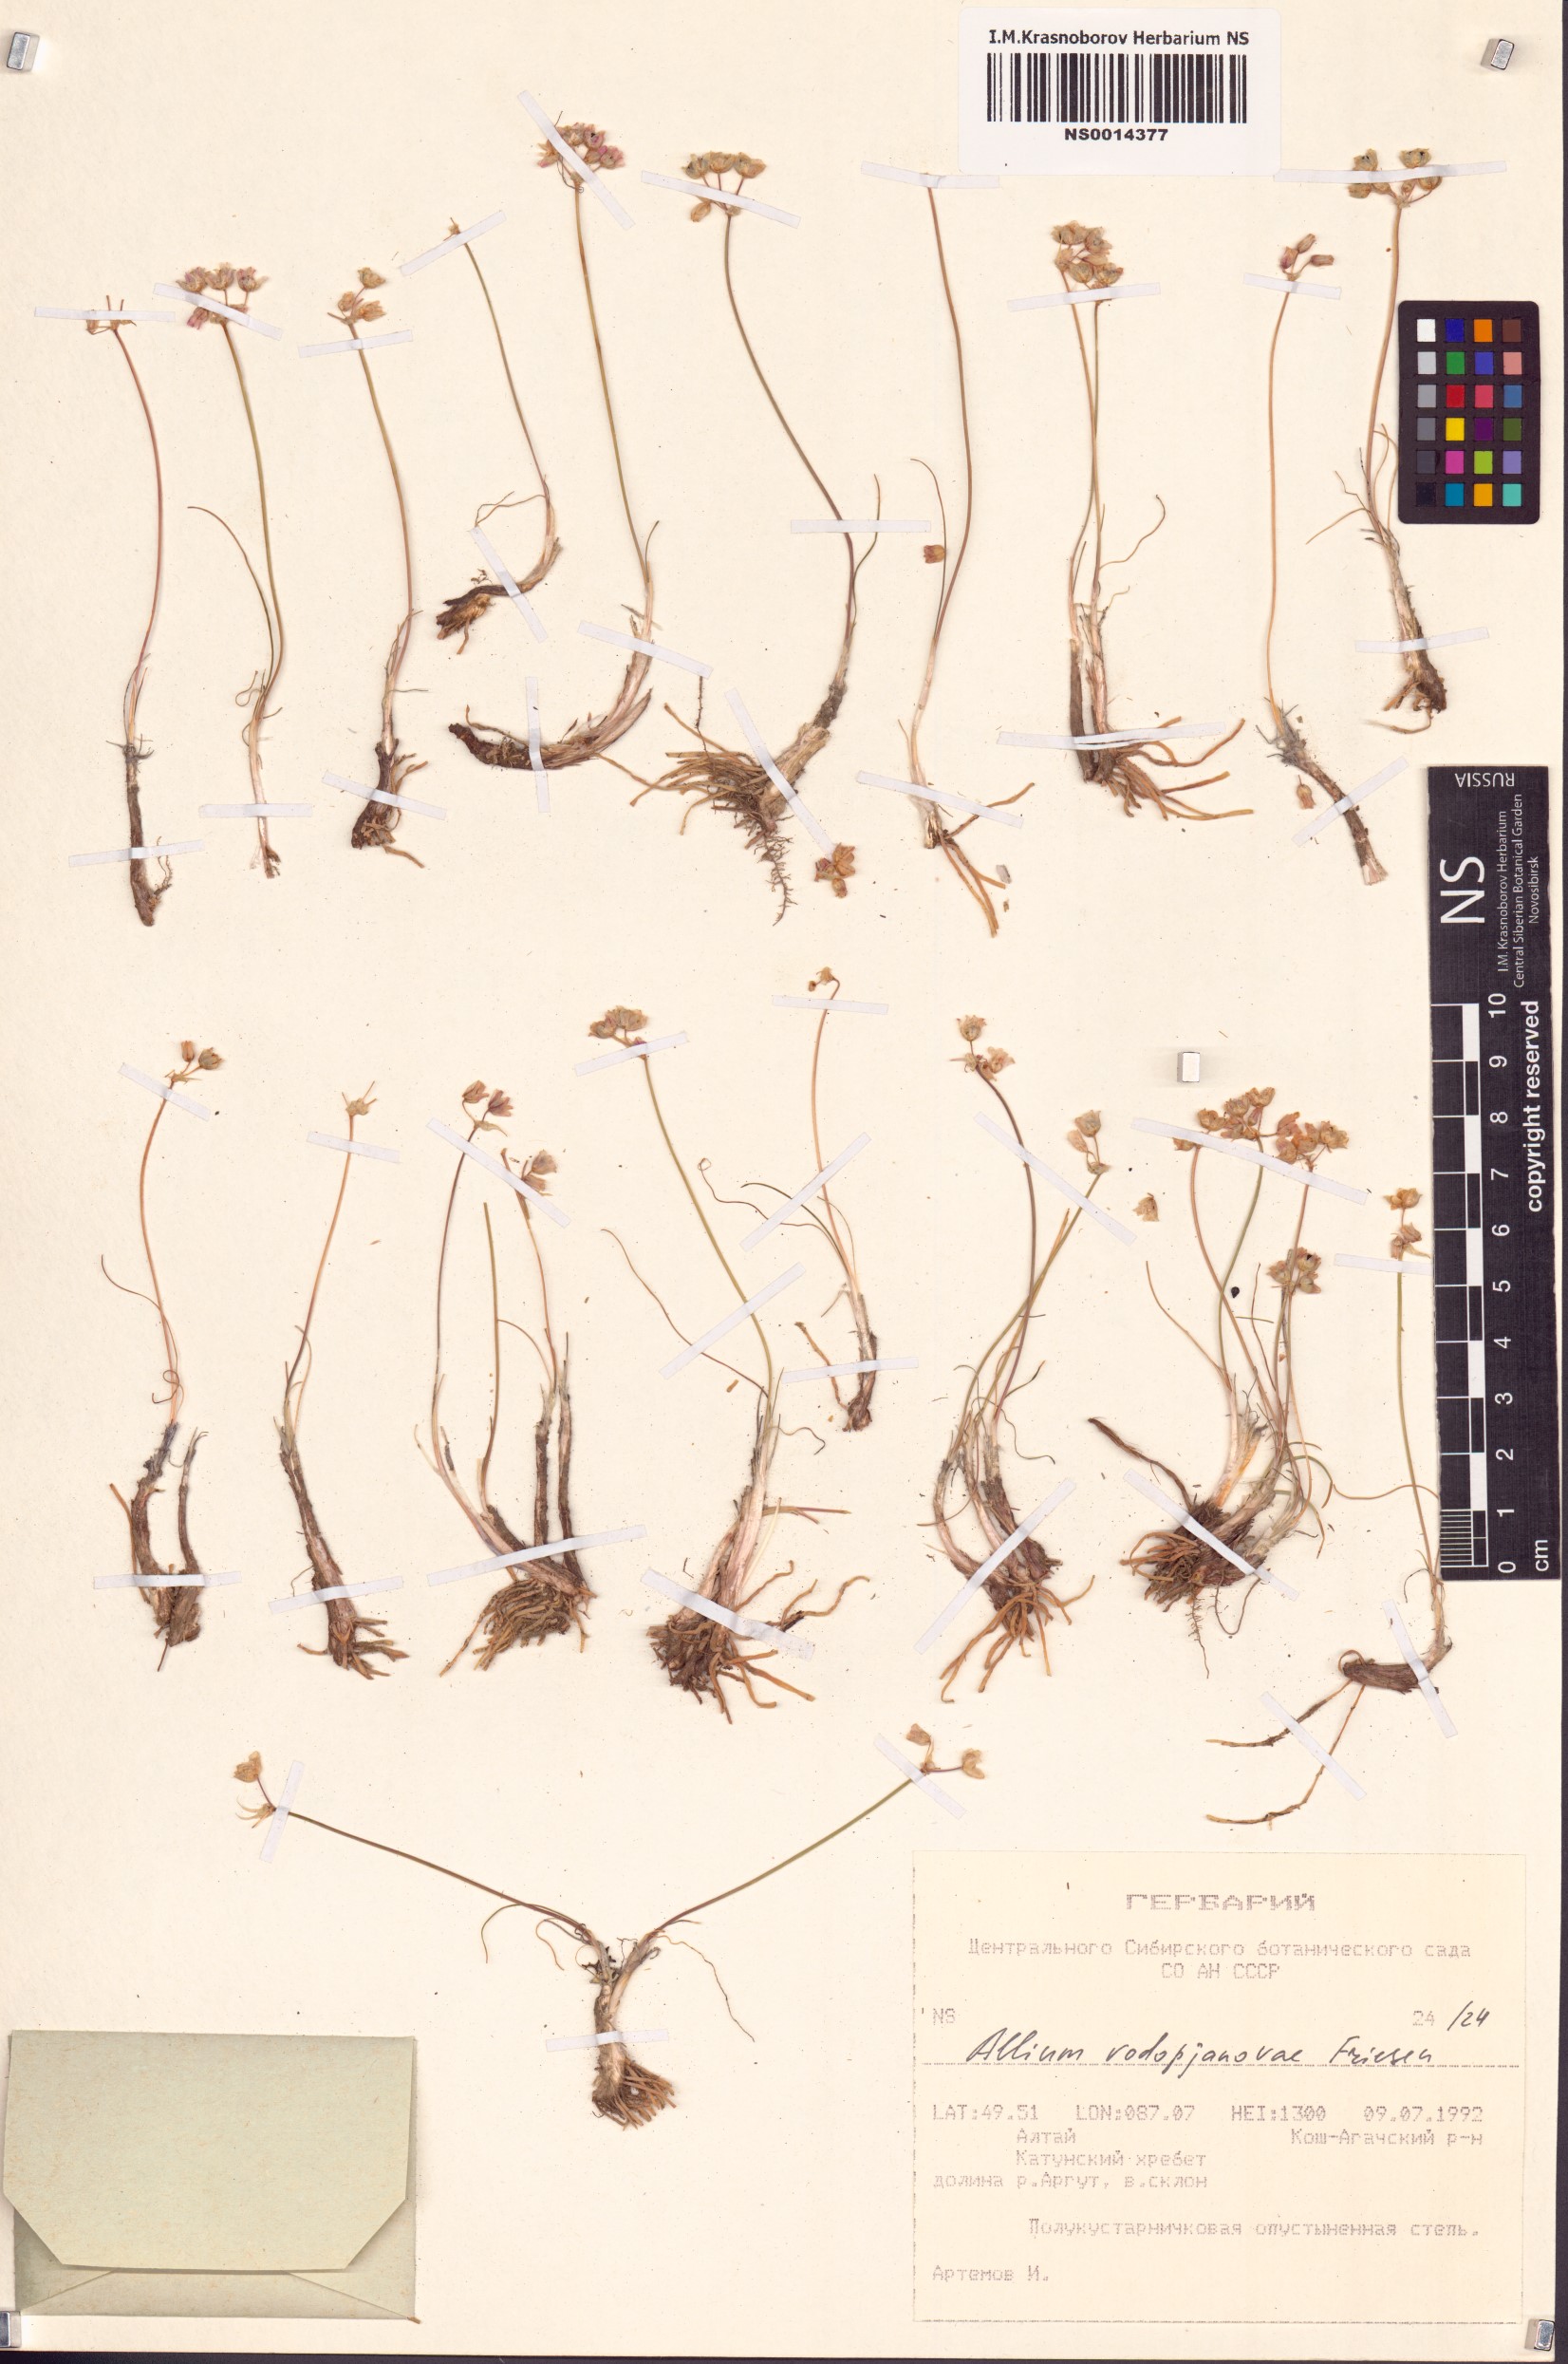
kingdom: Plantae
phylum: Tracheophyta
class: Liliopsida
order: Asparagales
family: Amaryllidaceae
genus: Allium
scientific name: Allium vodopjanovae
